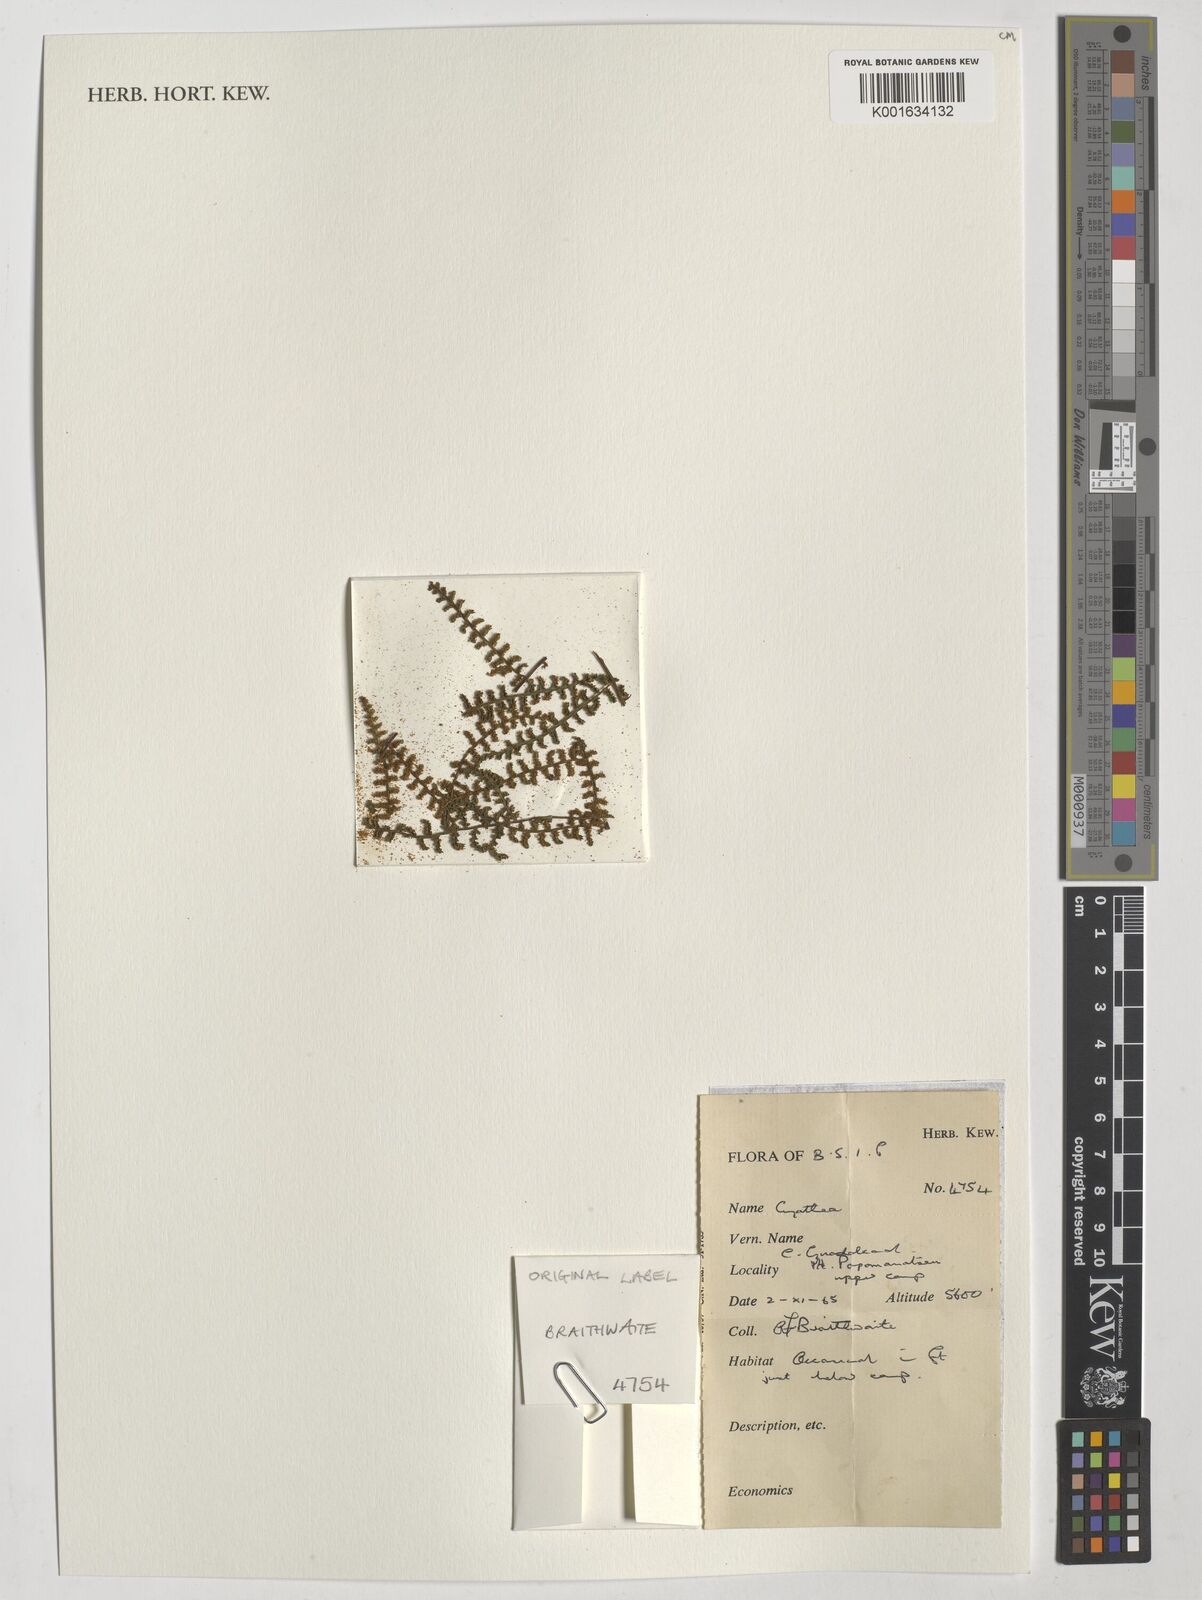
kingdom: Plantae
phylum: Tracheophyta
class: Polypodiopsida
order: Cyatheales
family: Cyatheaceae
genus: Cyathea
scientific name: Cyathea
